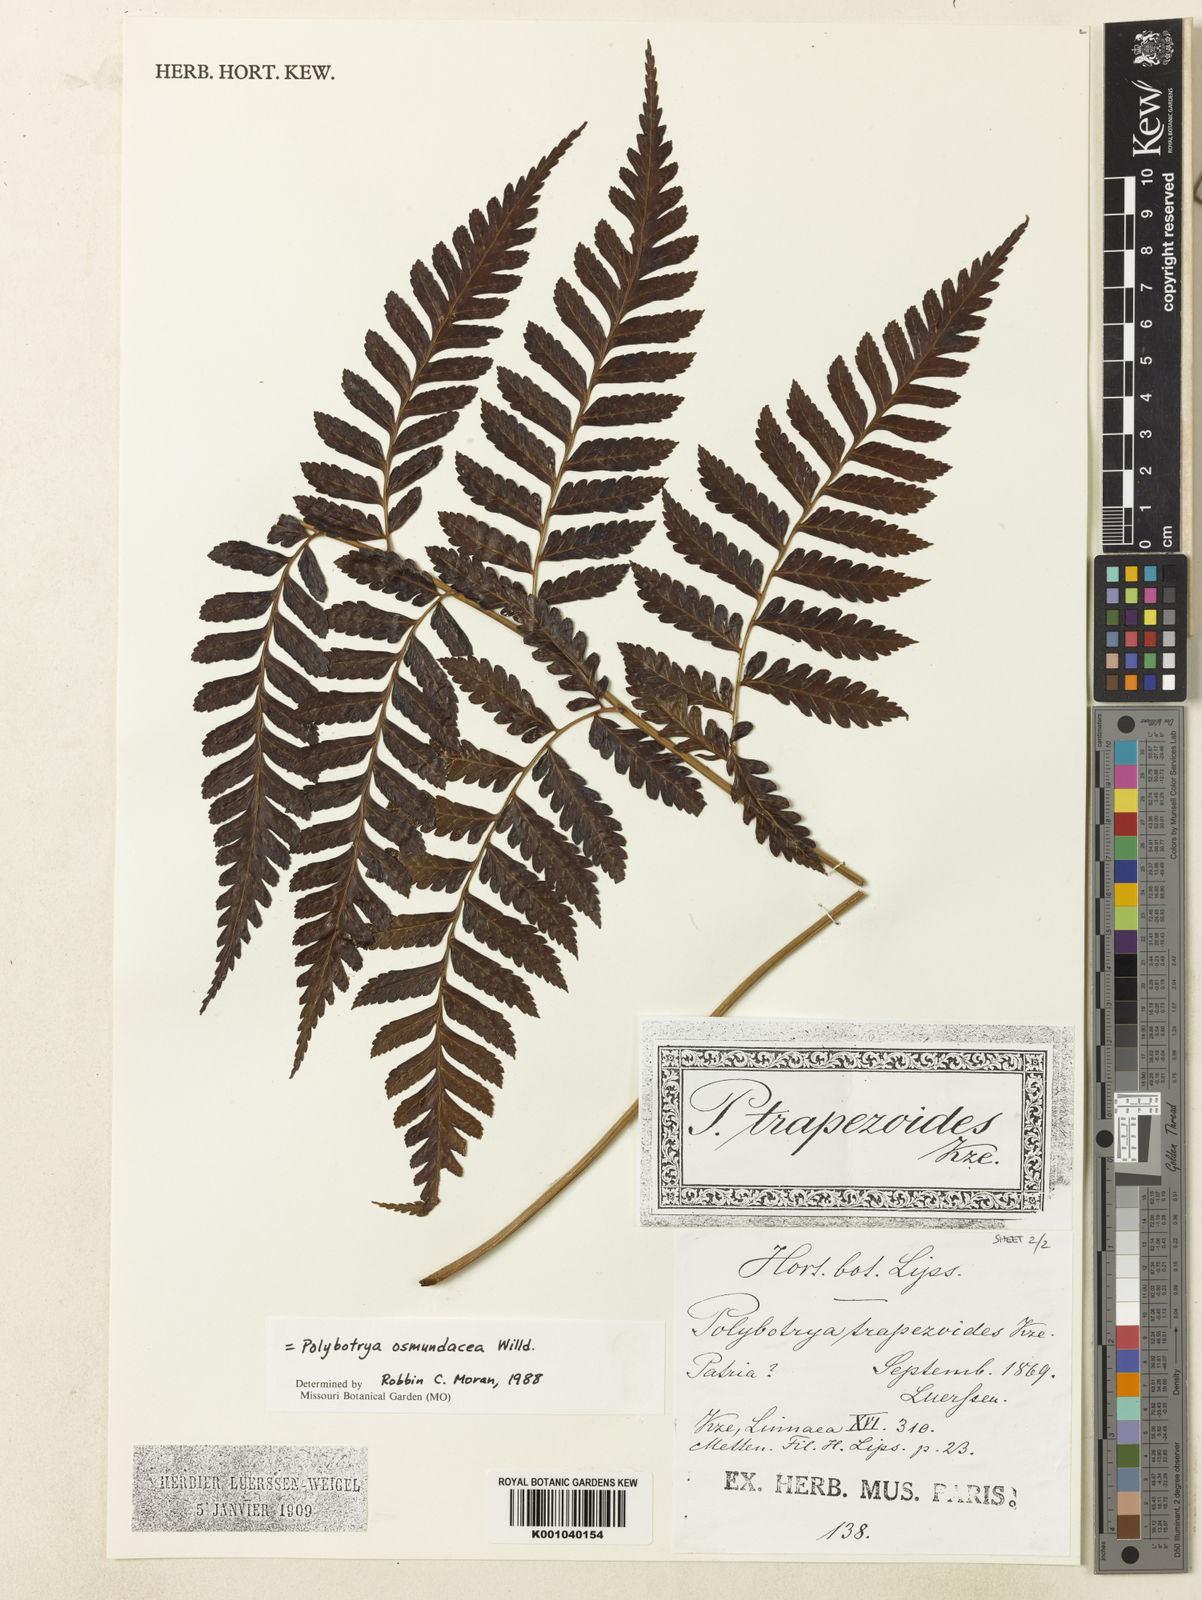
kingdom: Plantae
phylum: Tracheophyta
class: Polypodiopsida
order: Polypodiales
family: Dryopteridaceae
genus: Polybotrya
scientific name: Polybotrya osmundacea
